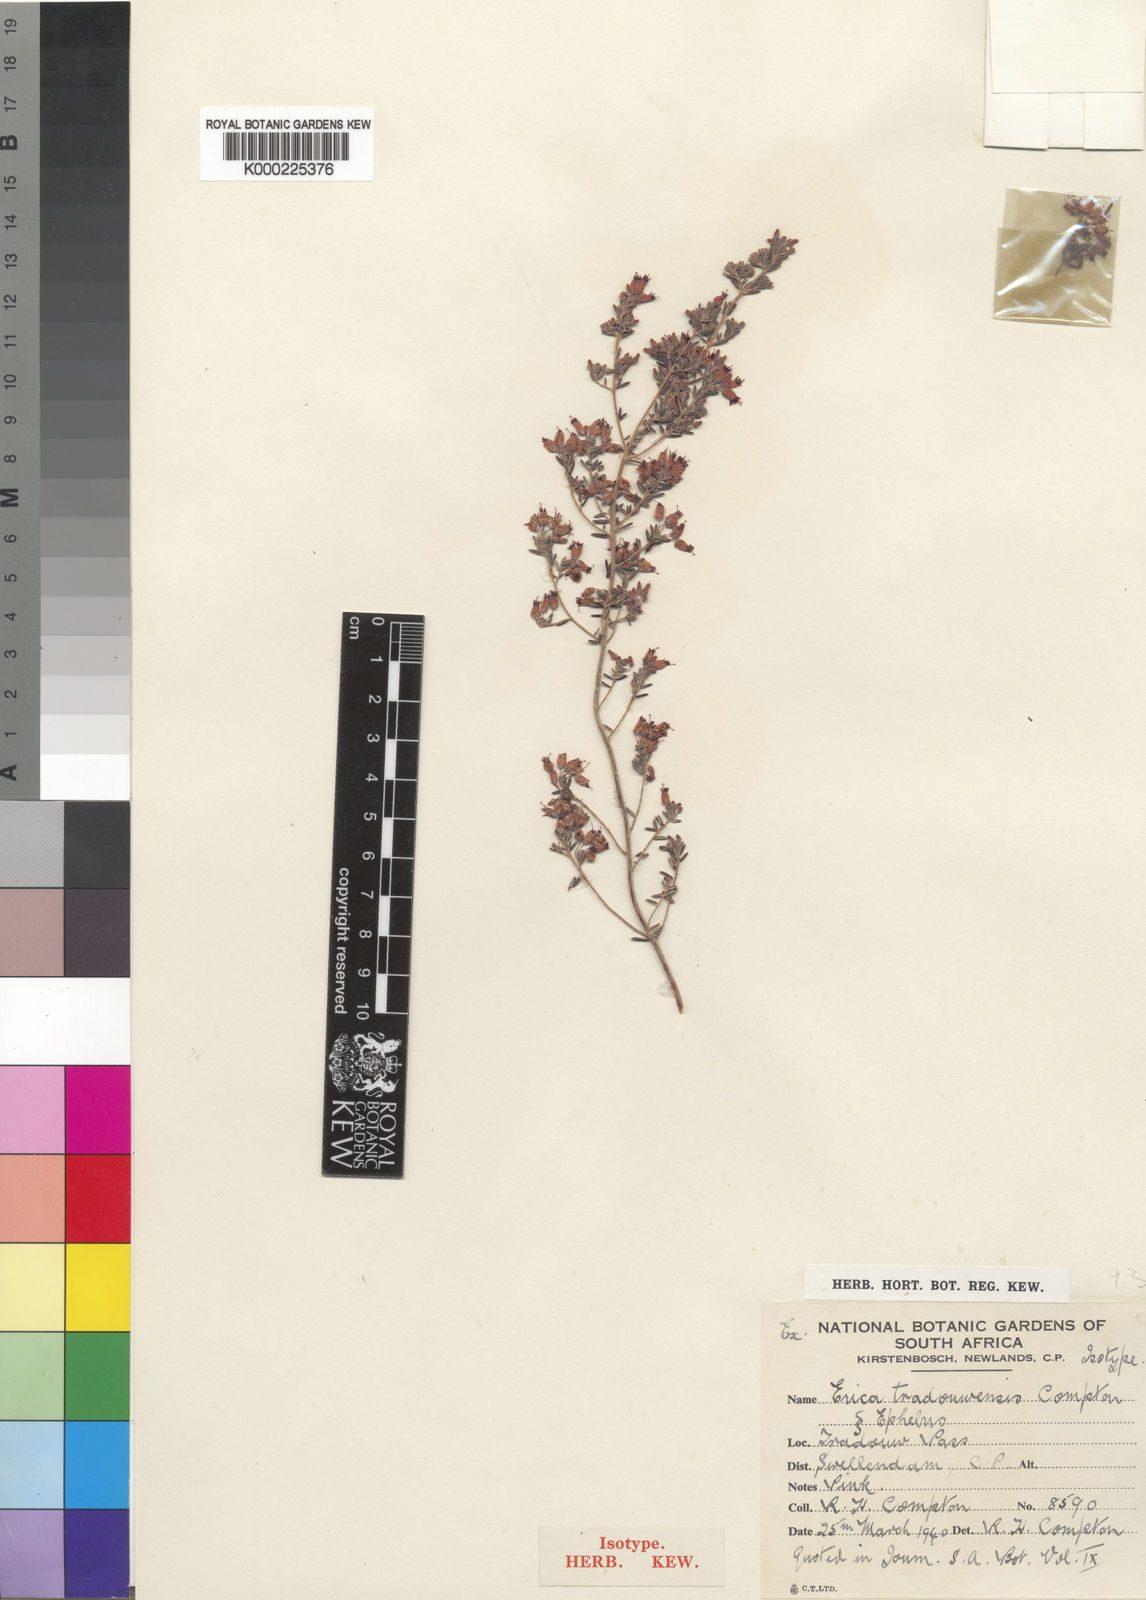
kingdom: Plantae
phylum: Tracheophyta
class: Magnoliopsida
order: Ericales
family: Ericaceae
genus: Erica
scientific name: Erica
